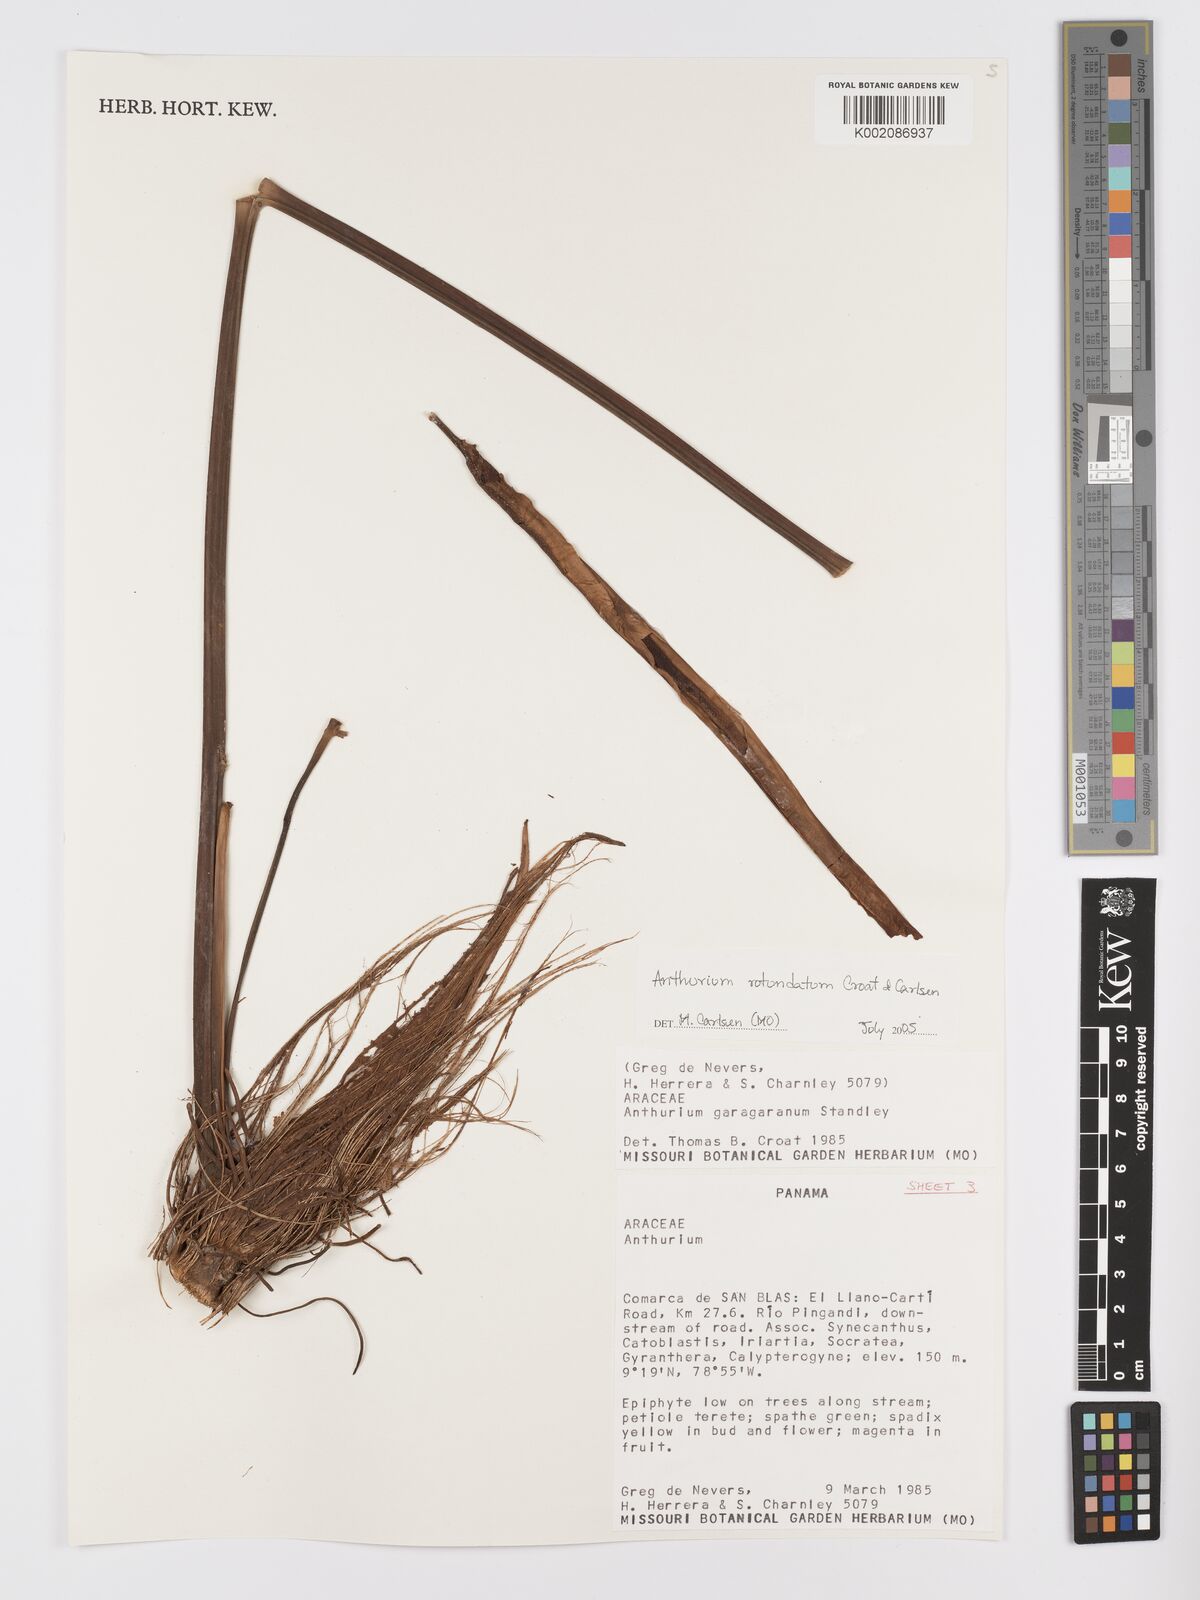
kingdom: Plantae
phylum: Tracheophyta
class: Liliopsida
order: Alismatales
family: Araceae
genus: Anthurium
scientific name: Anthurium rotundatum
